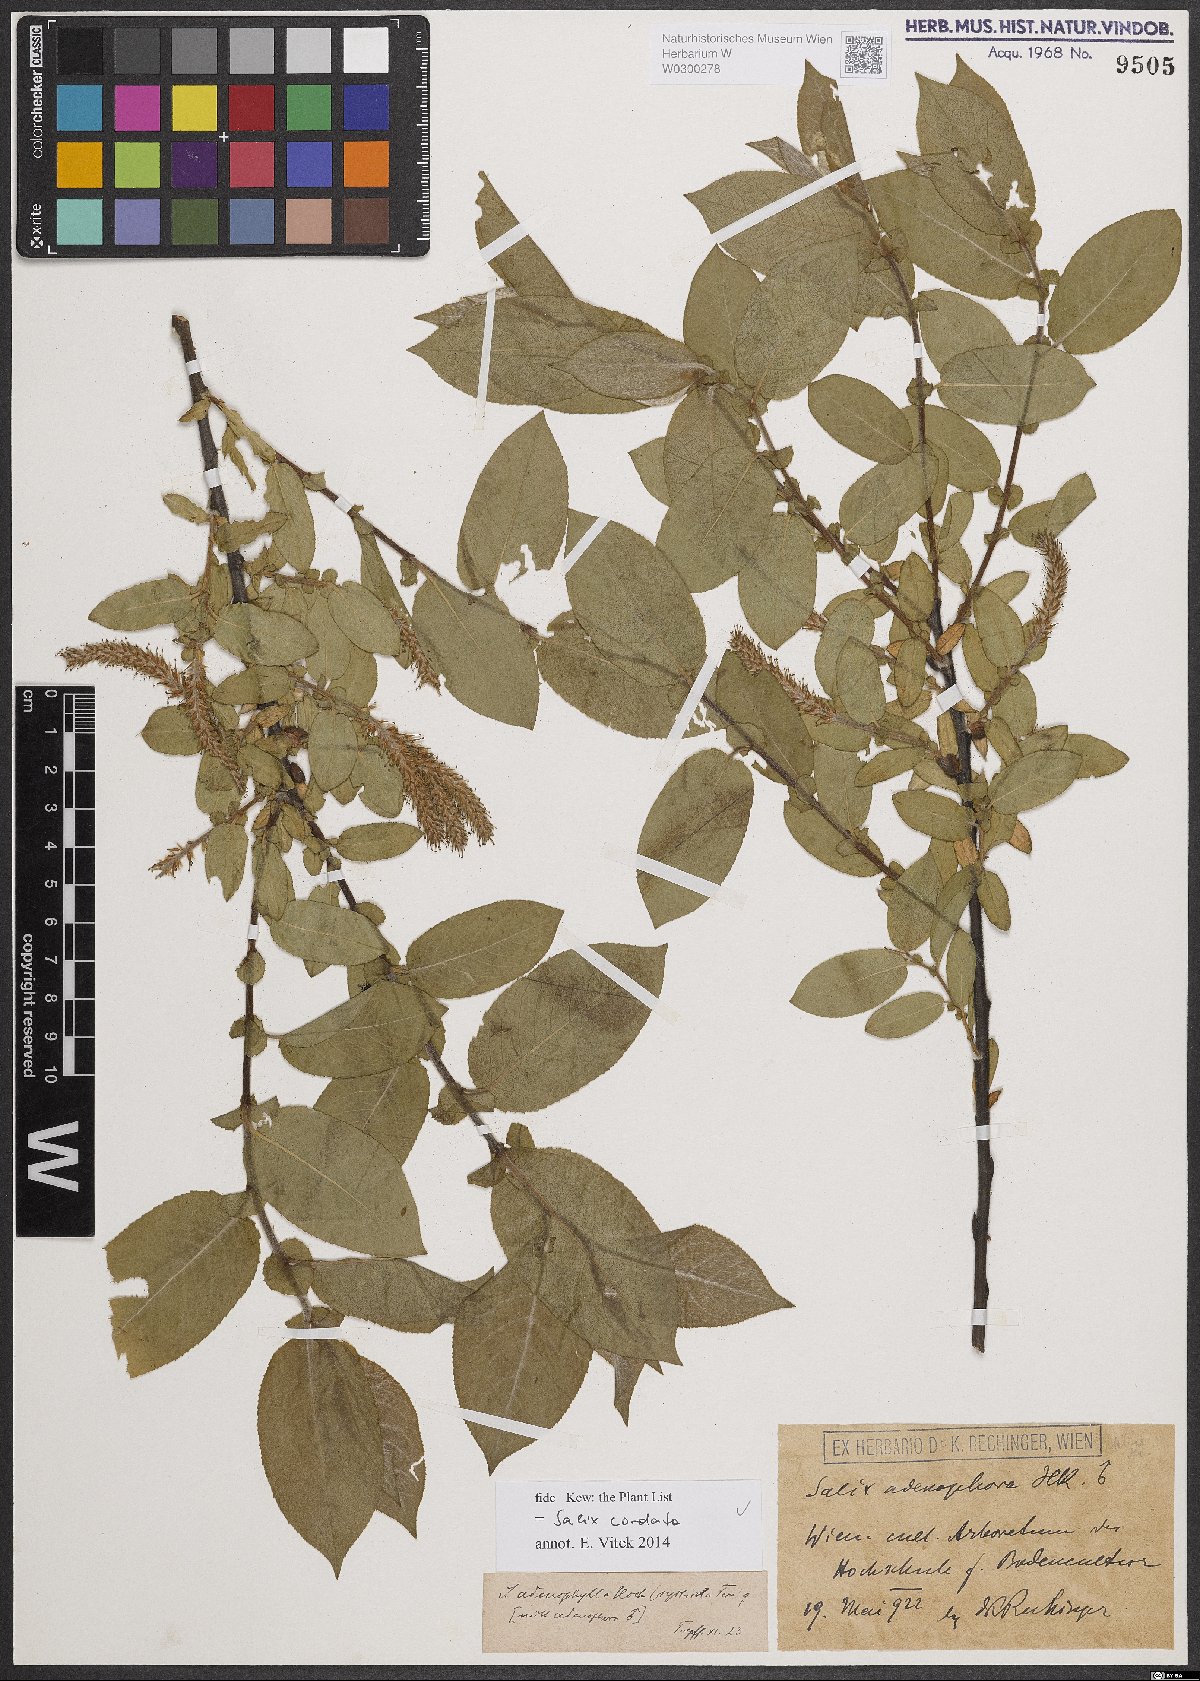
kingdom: Plantae
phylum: Tracheophyta
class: Magnoliopsida
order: Malpighiales
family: Salicaceae
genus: Salix
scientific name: Salix cordata
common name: Heart-leaf willow
